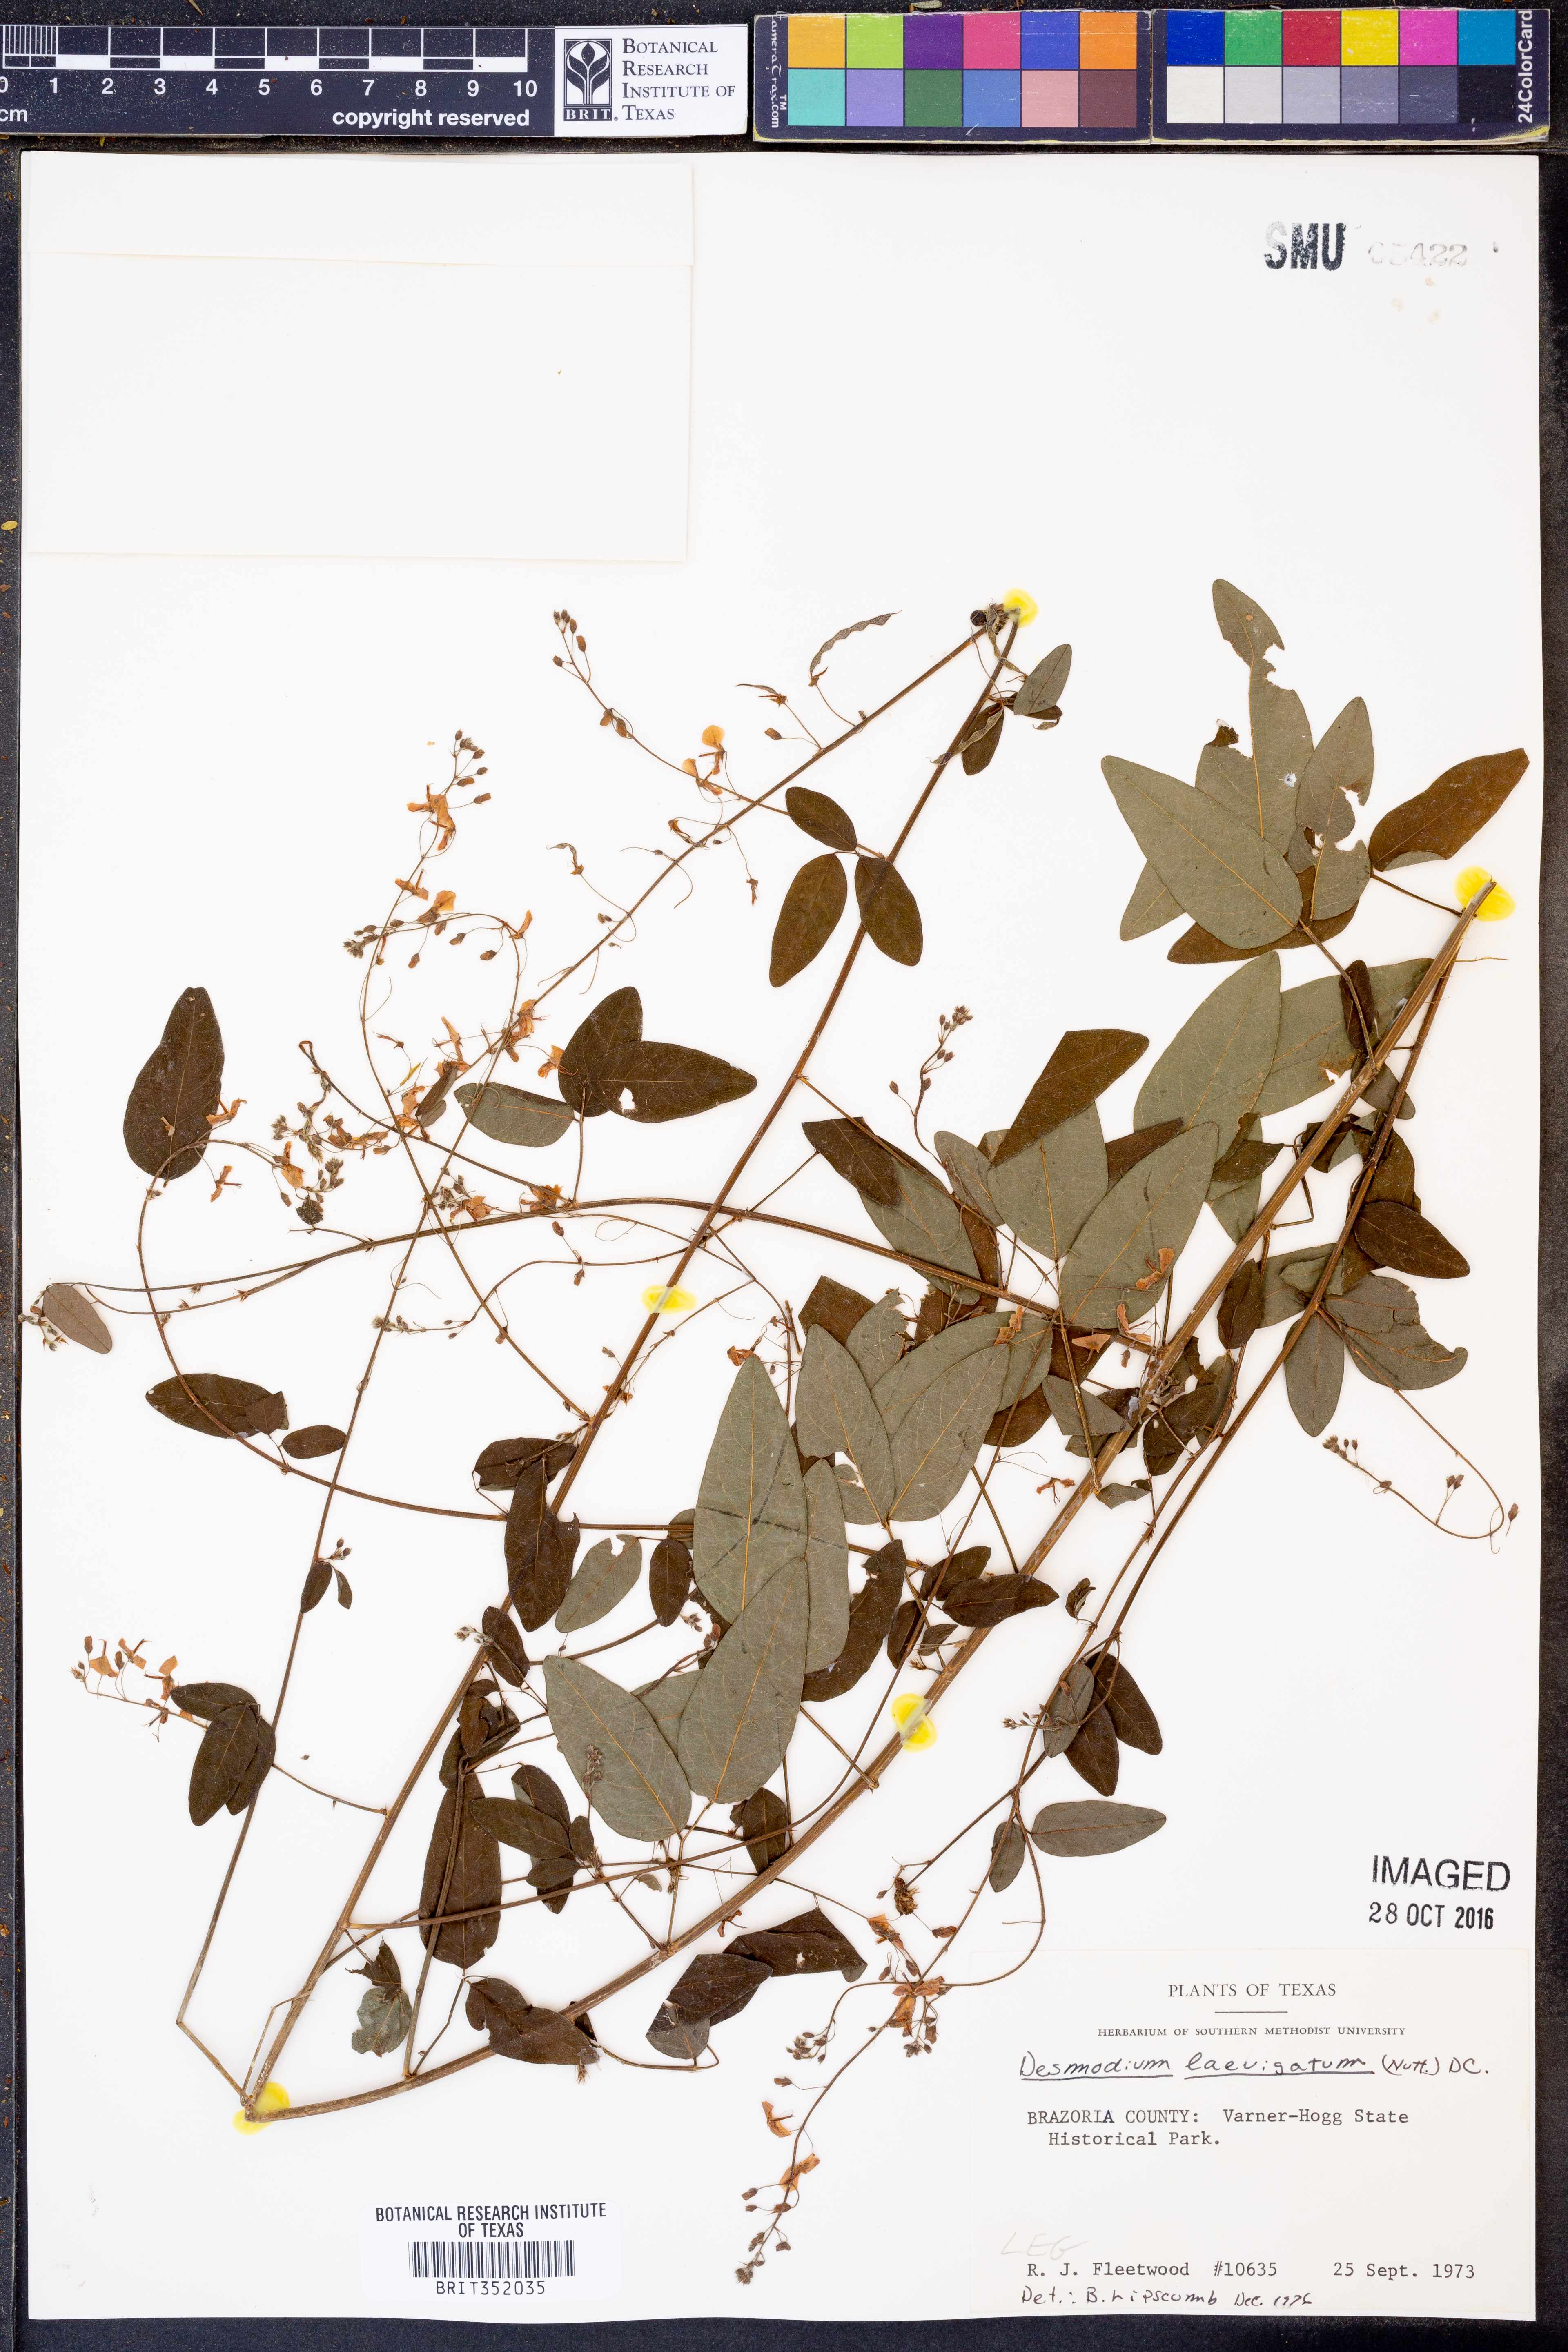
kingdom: Plantae
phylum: Tracheophyta
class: Magnoliopsida
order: Fabales
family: Fabaceae
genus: Desmodium
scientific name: Desmodium laevigatum
